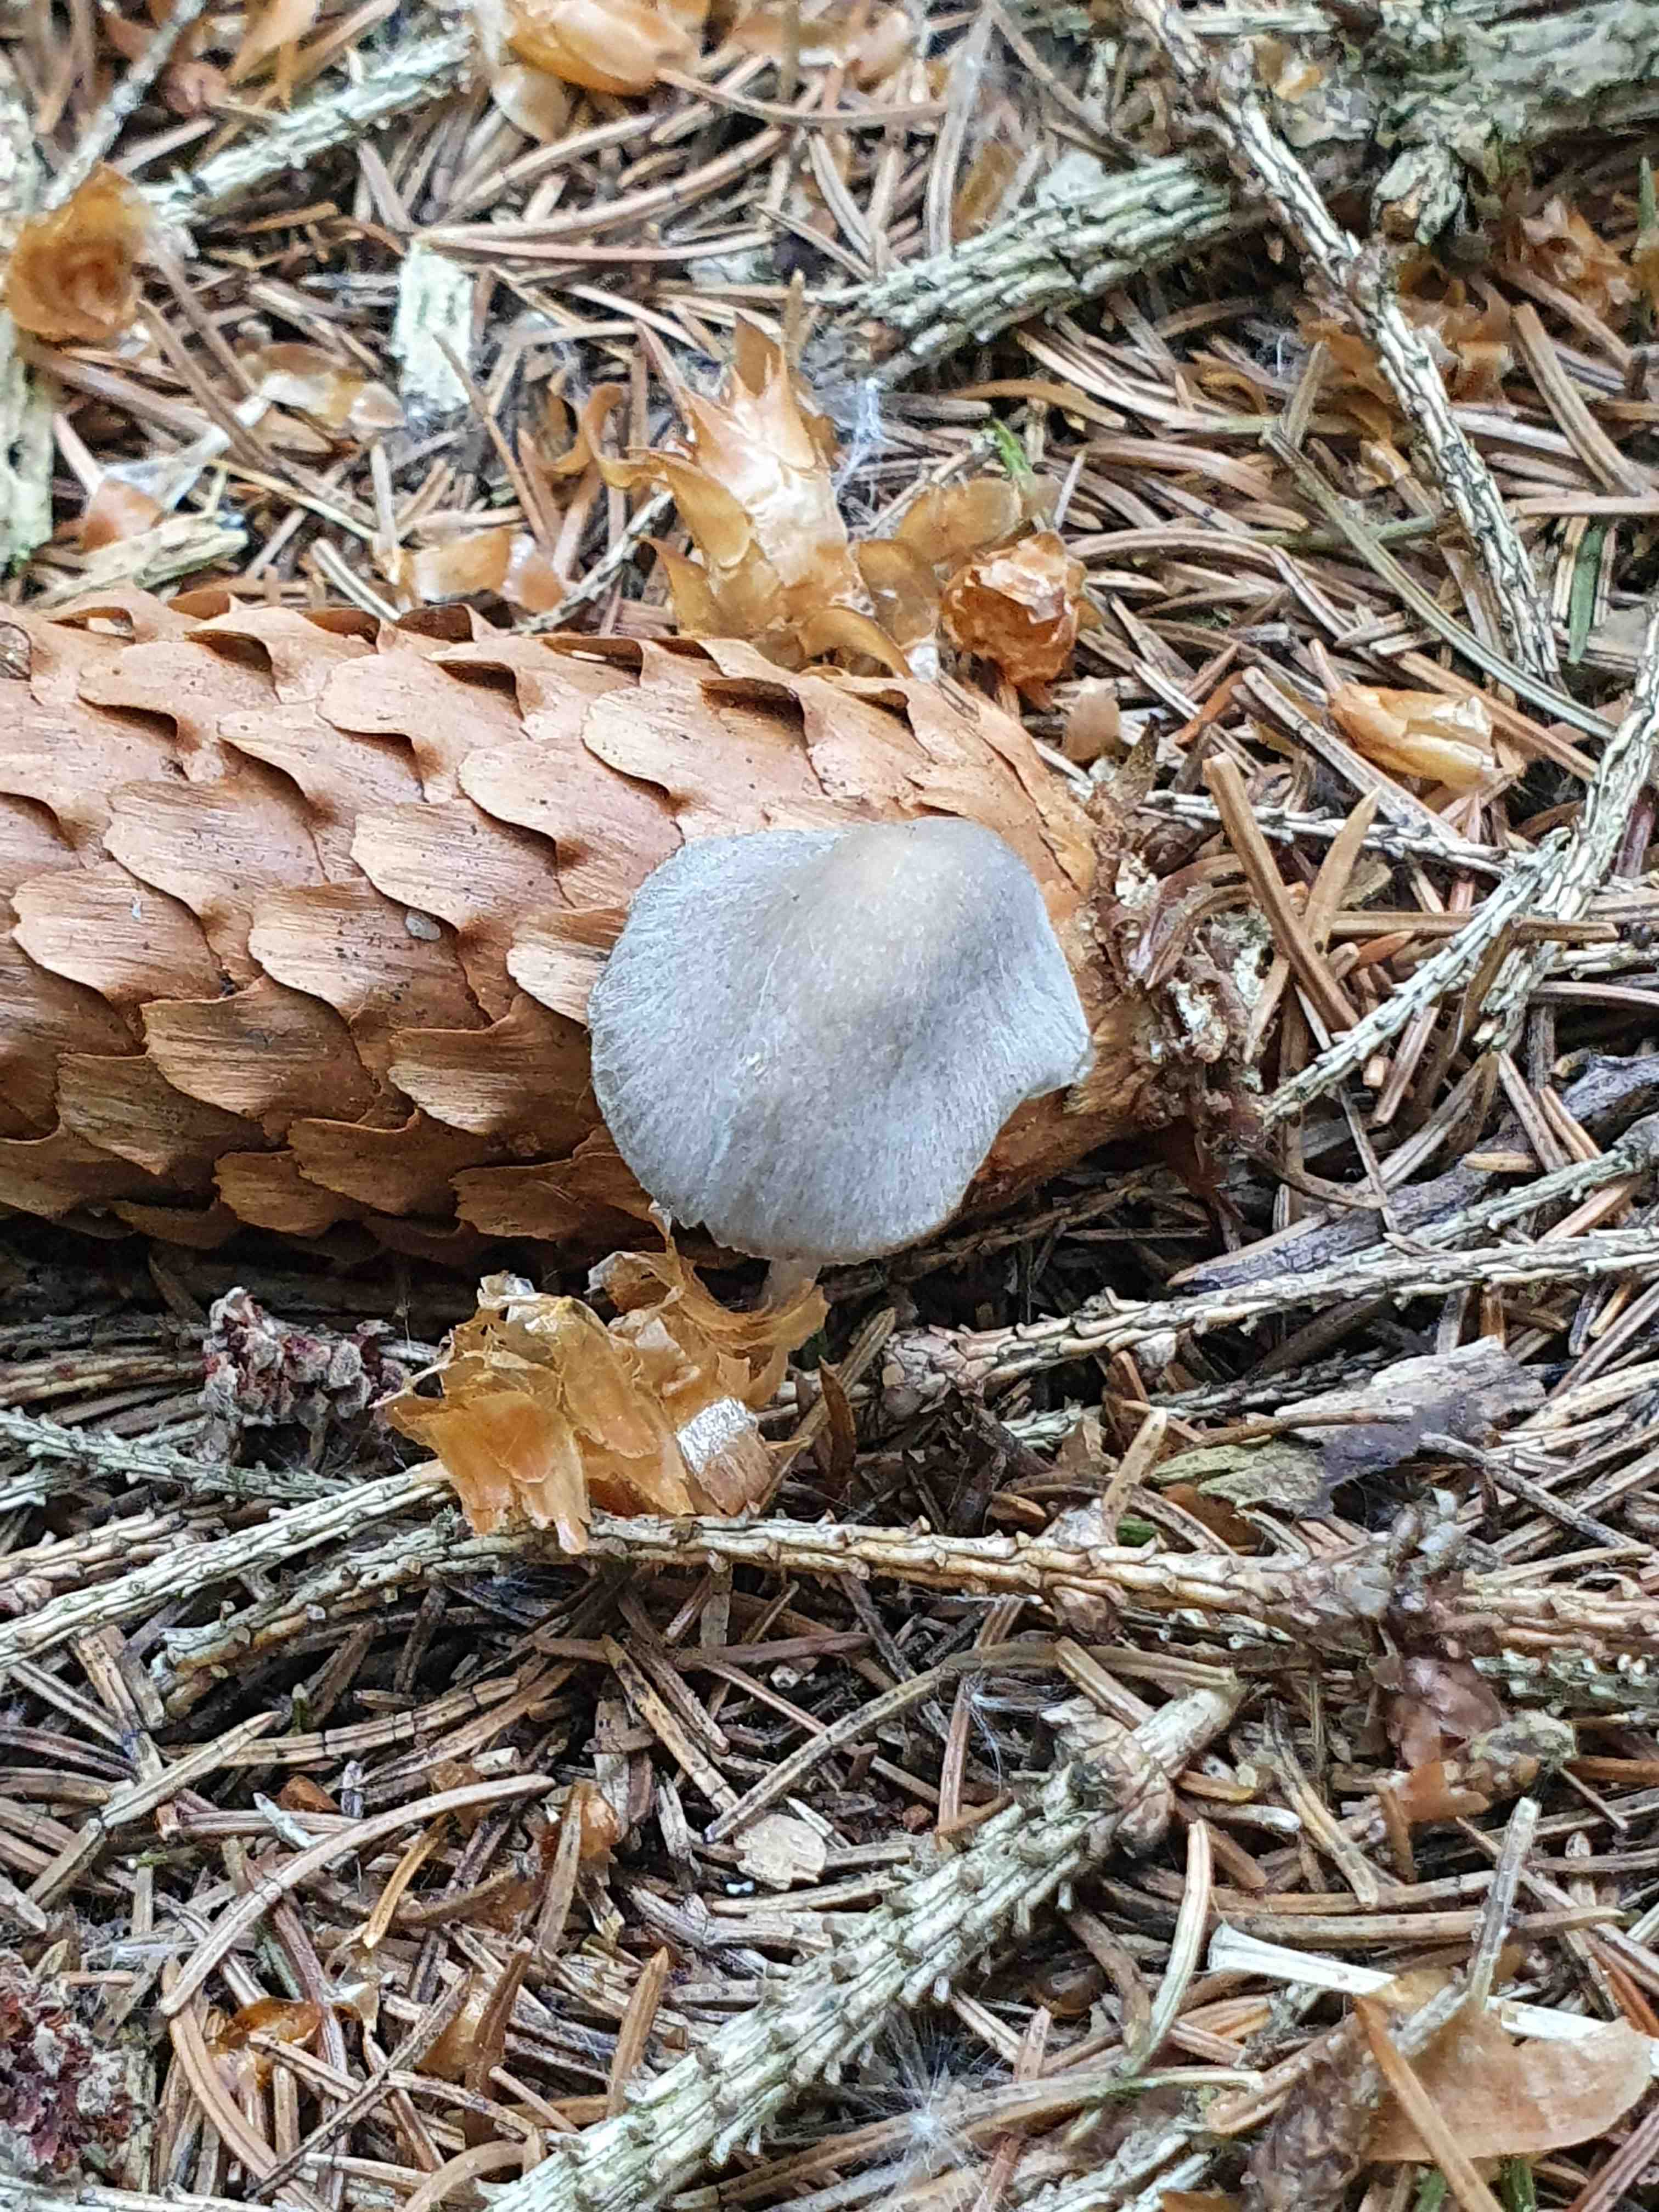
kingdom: Fungi
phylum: Basidiomycota
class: Agaricomycetes
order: Agaricales
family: Mycenaceae
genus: Mycena
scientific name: Mycena silvae-nigrae
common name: tidlig huesvamp
